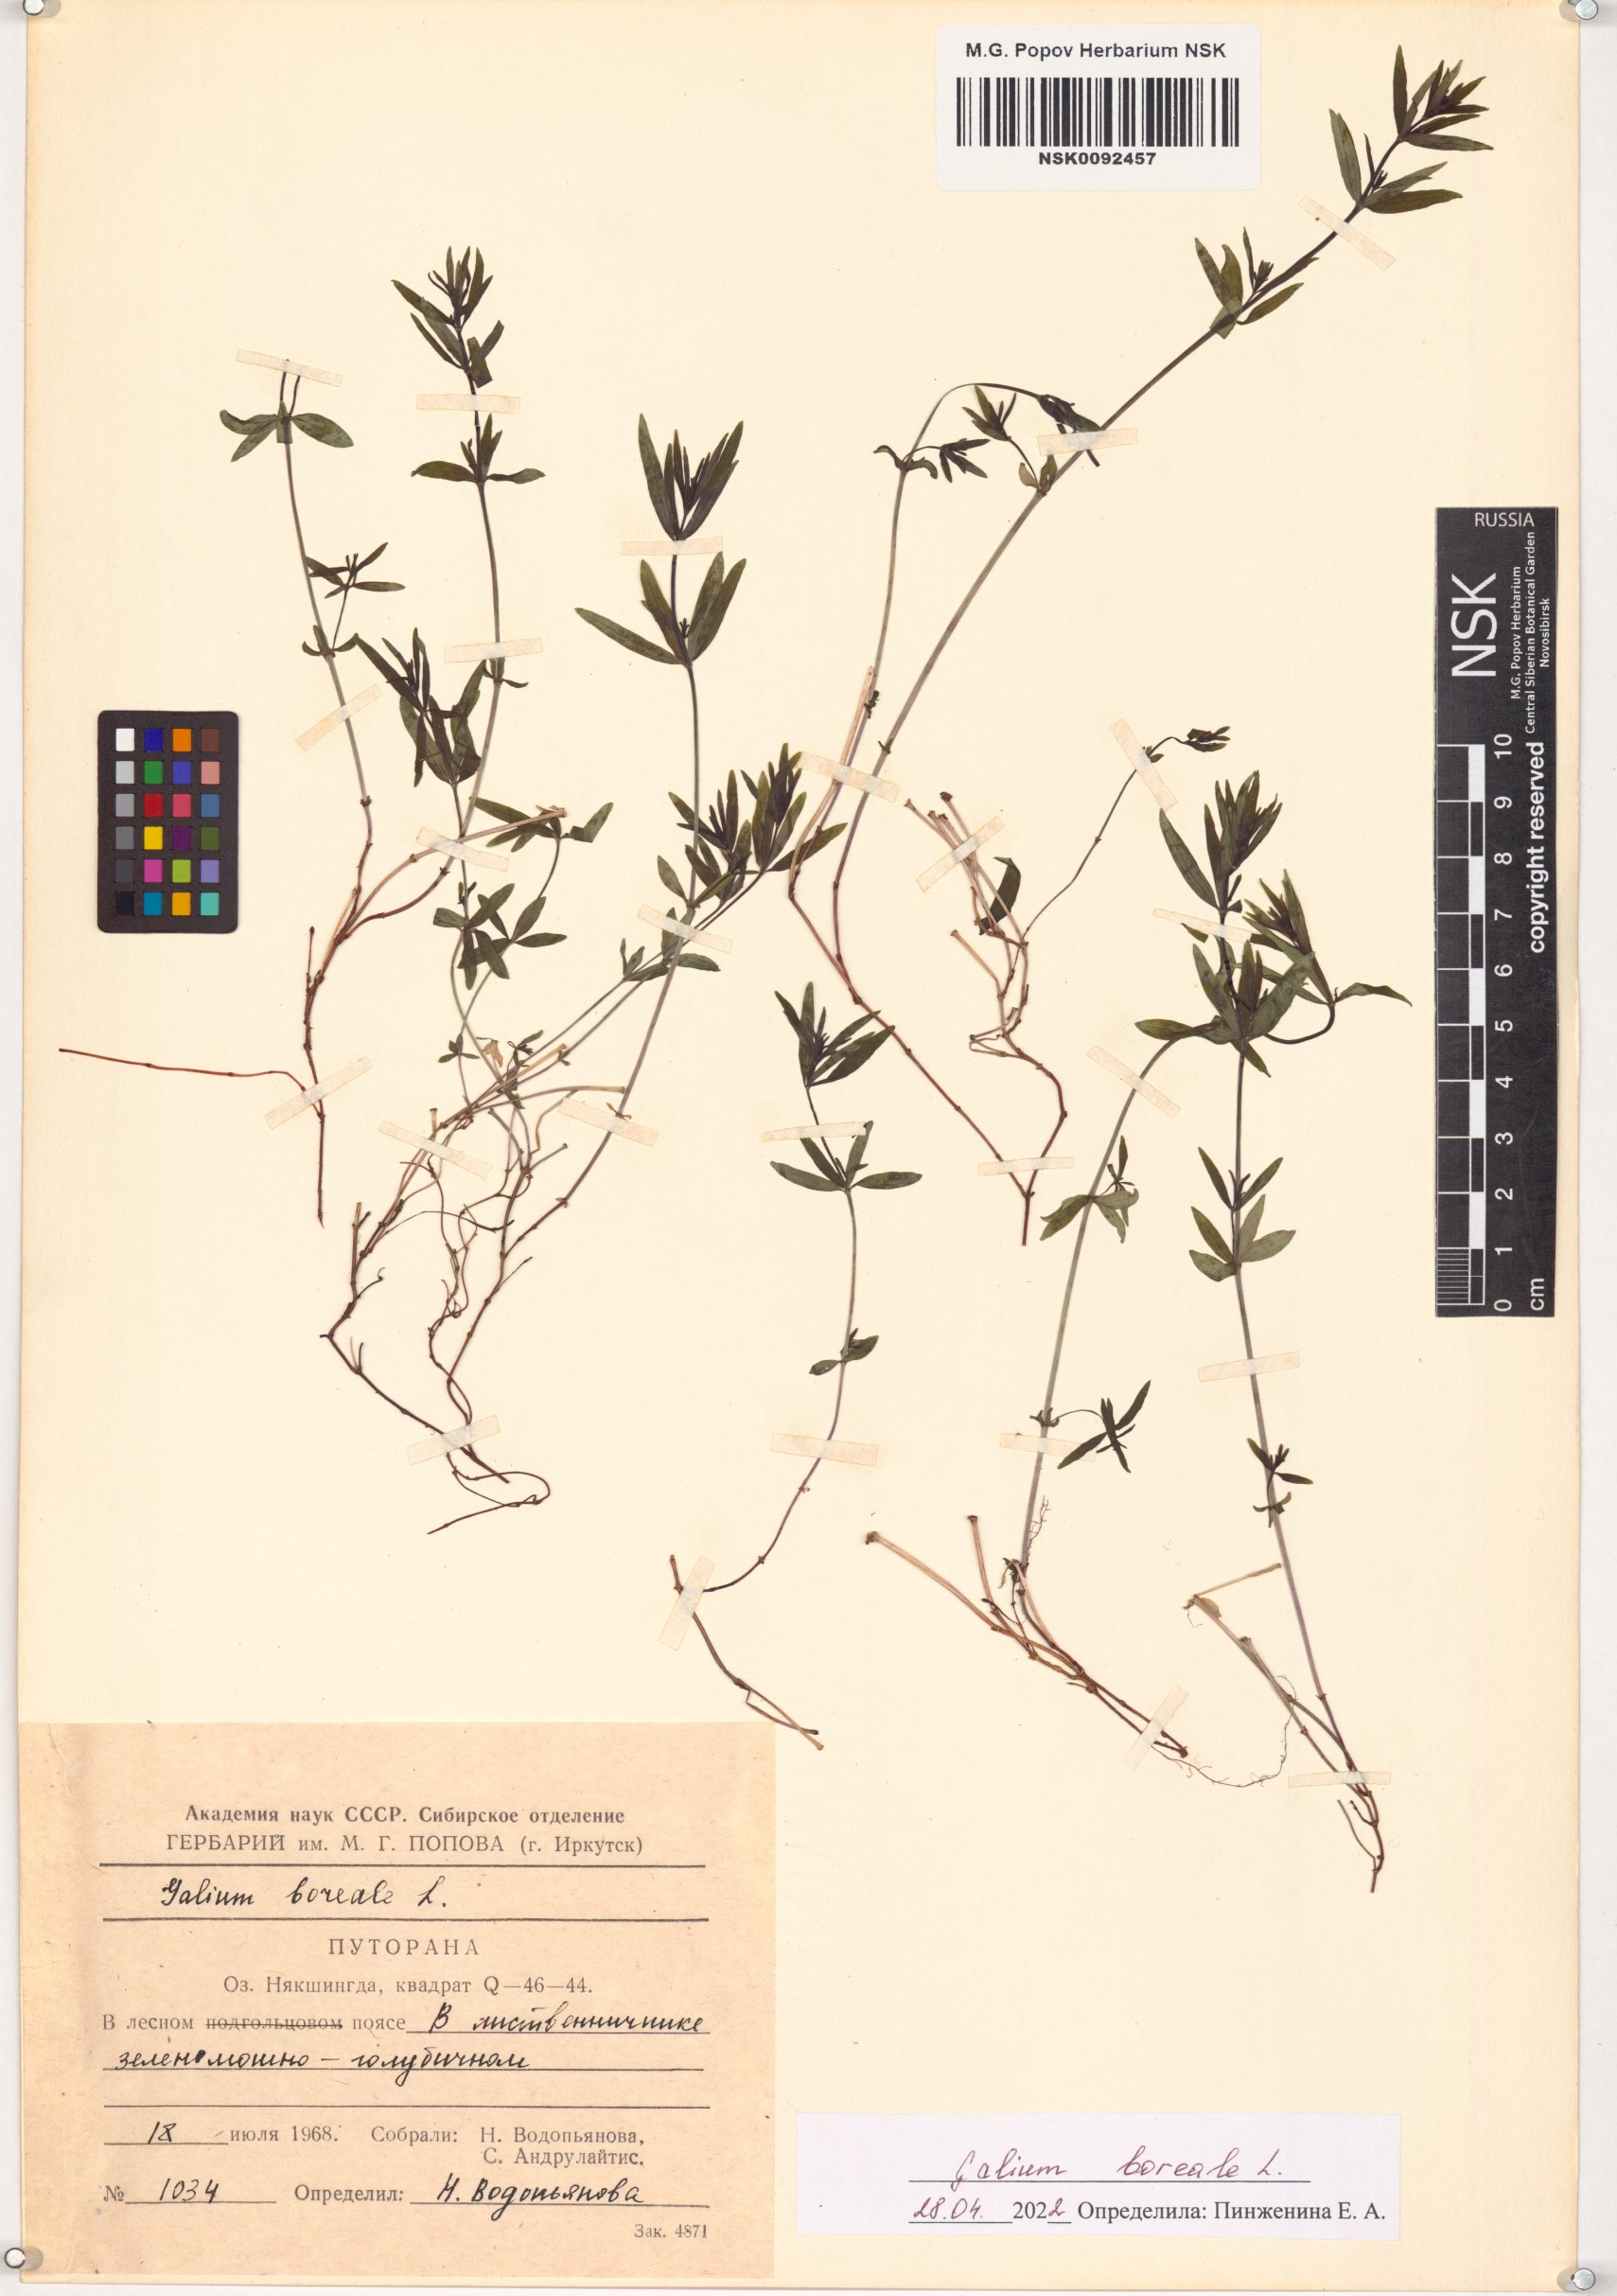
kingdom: Plantae
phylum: Tracheophyta
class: Magnoliopsida
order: Gentianales
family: Rubiaceae
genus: Galium
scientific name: Galium boreale
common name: Northern bedstraw
